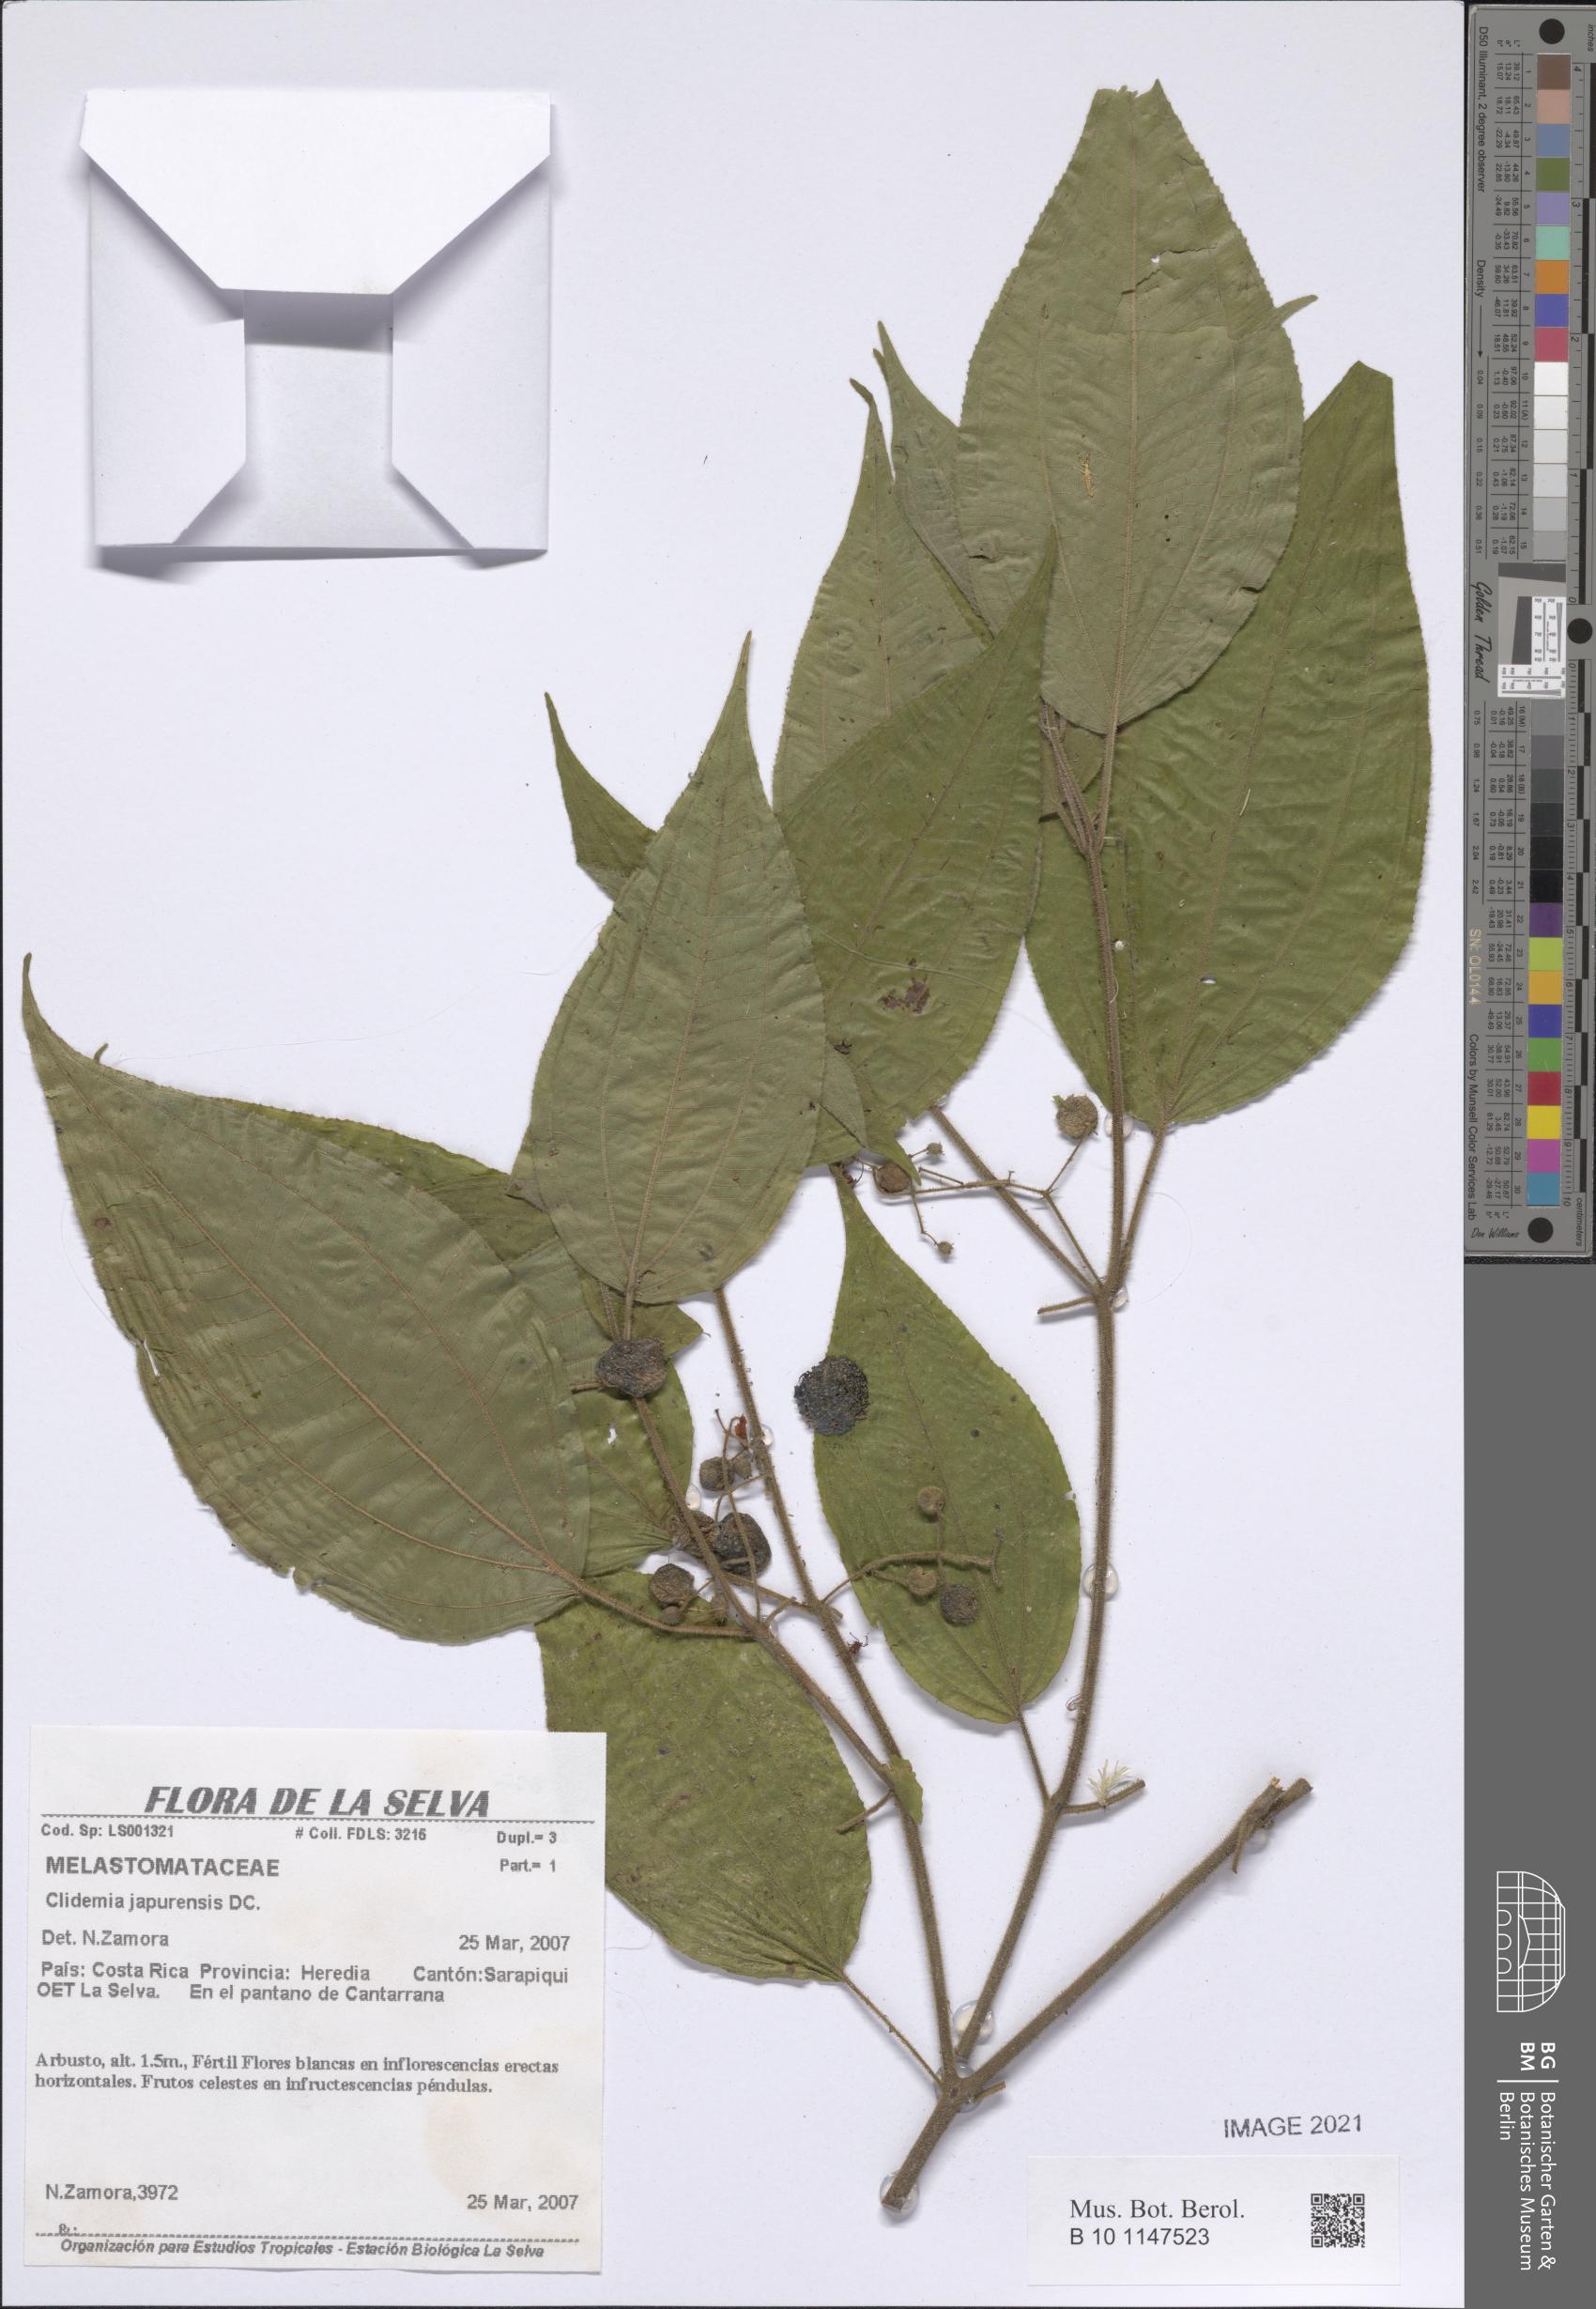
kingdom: Plantae
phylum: Tracheophyta
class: Magnoliopsida
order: Myrtales
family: Melastomataceae
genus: Miconia
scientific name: Miconia heteroclita
